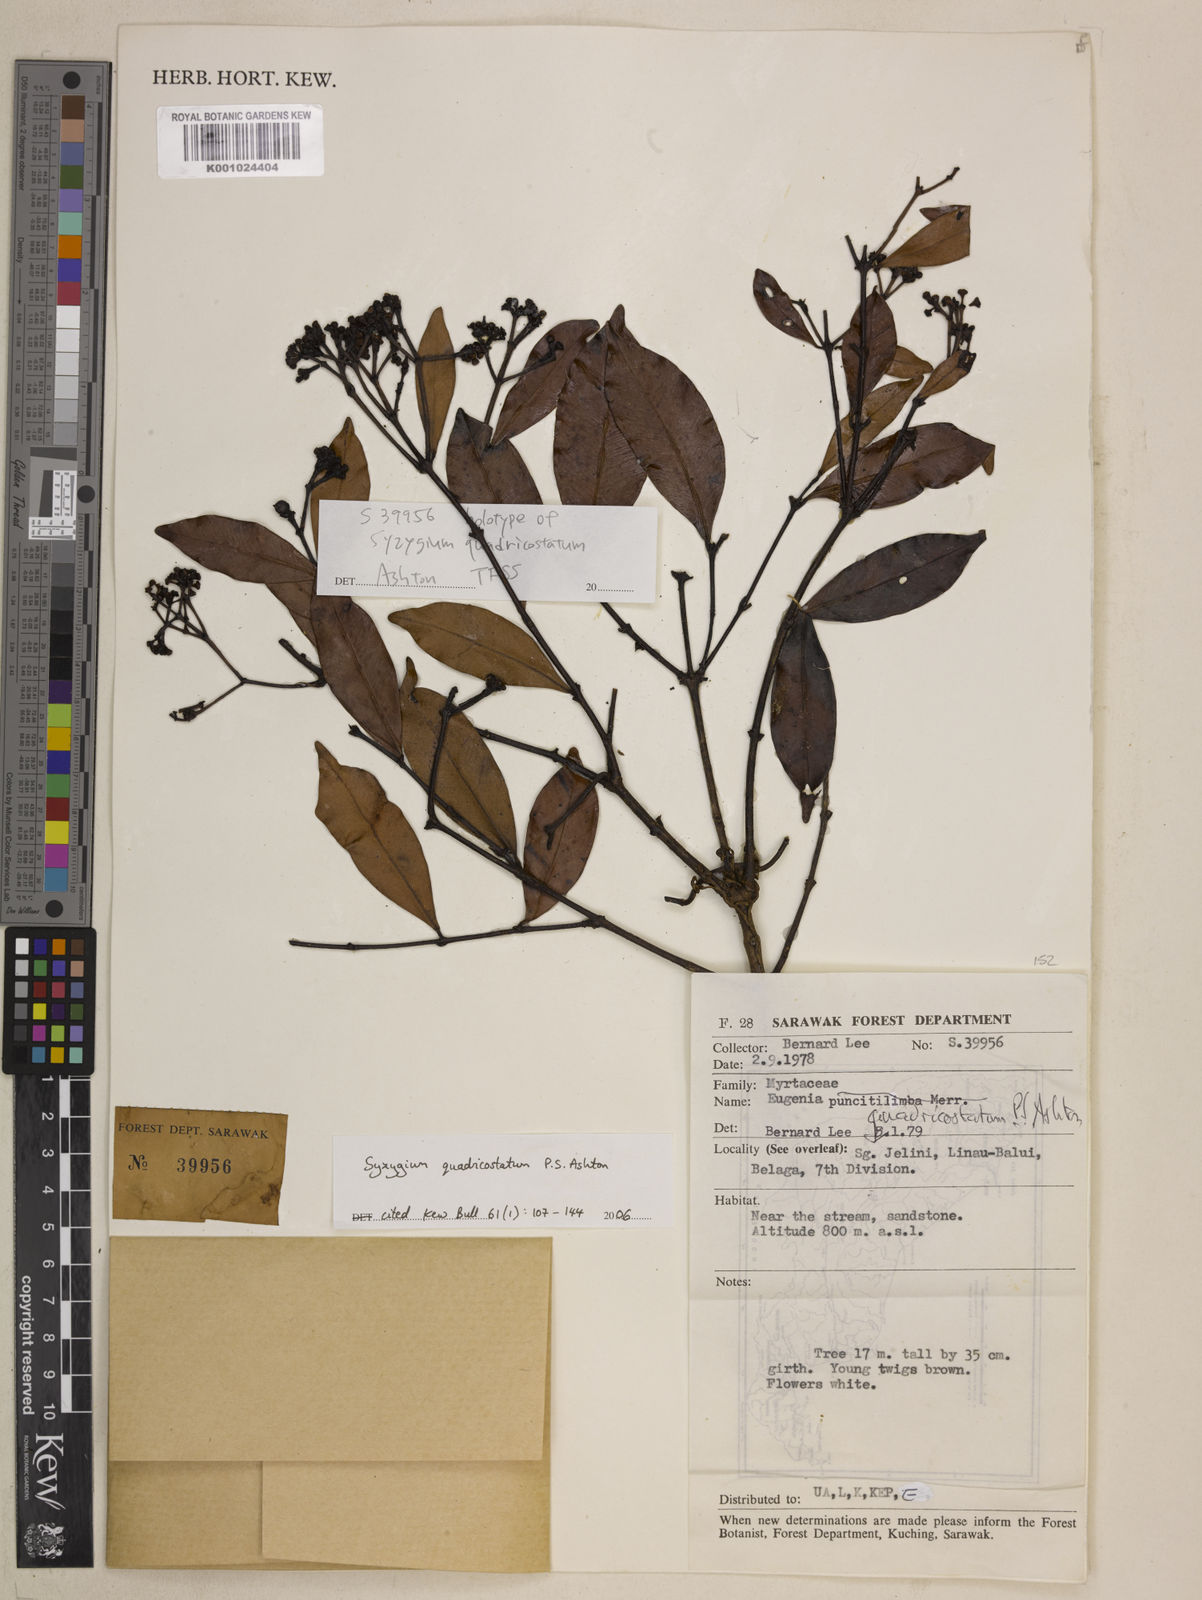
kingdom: Plantae
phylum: Tracheophyta
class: Magnoliopsida
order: Myrtales
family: Myrtaceae
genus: Syzygium
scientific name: Syzygium quadricostatum
